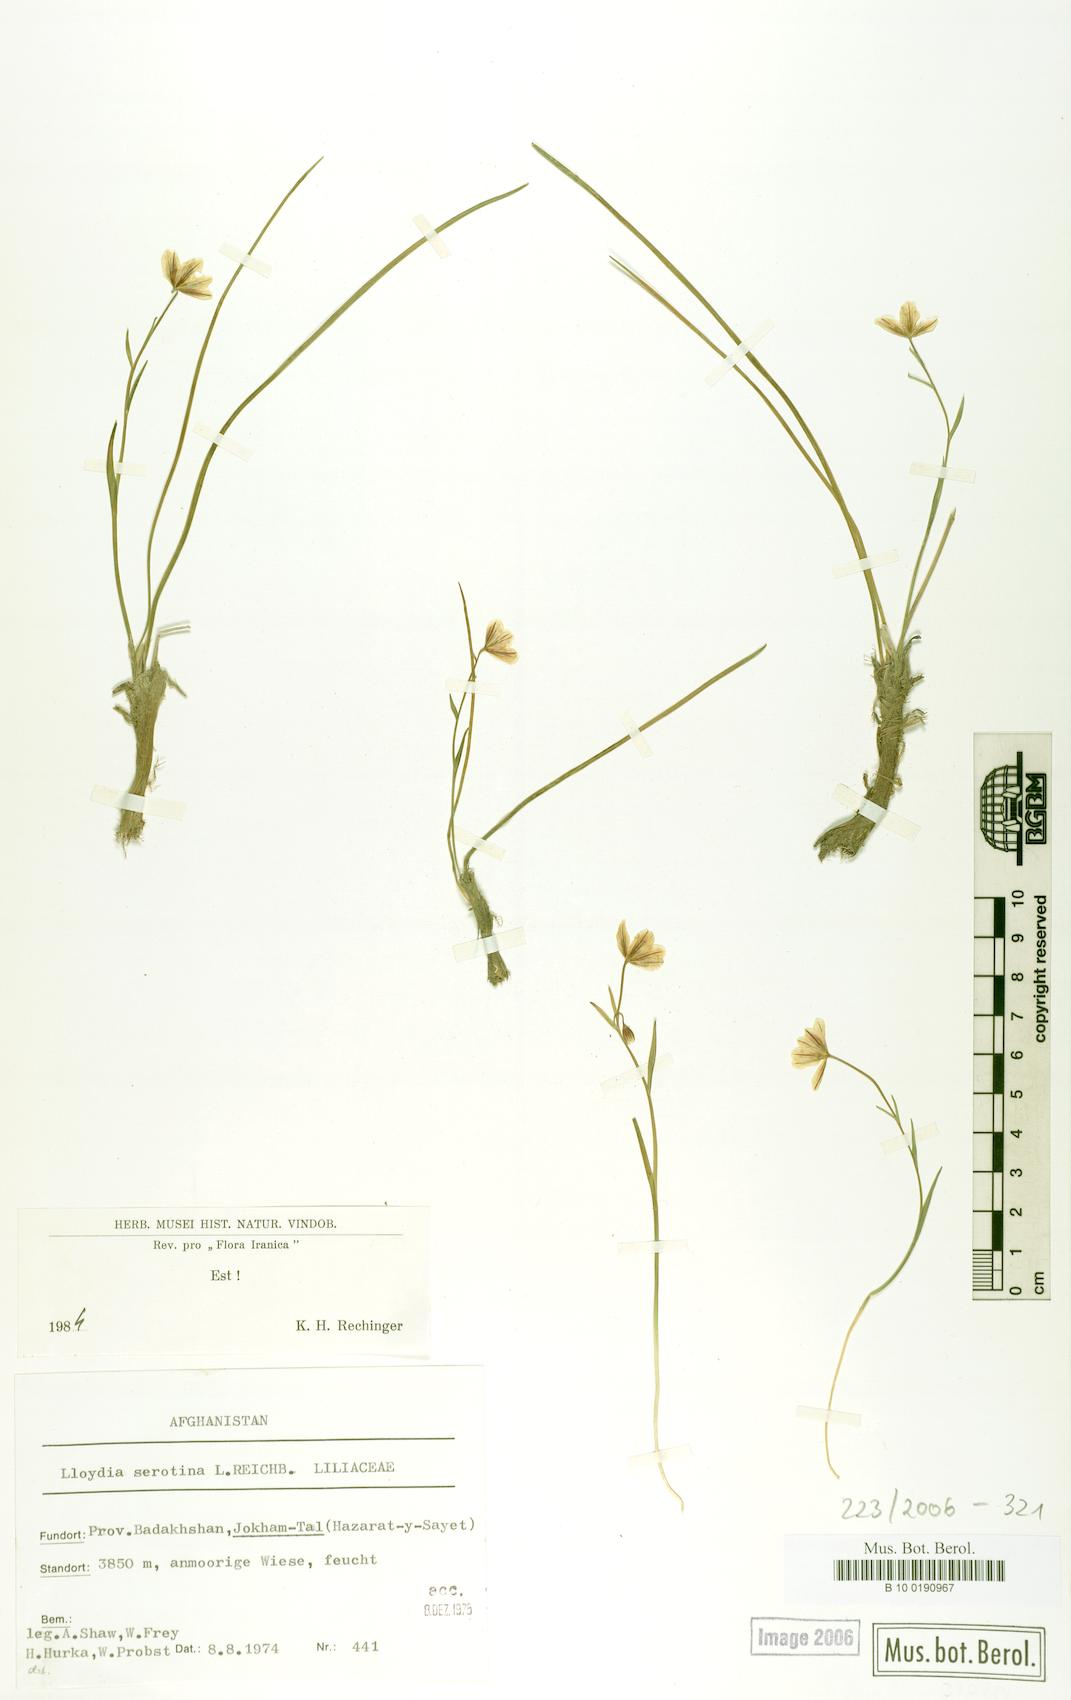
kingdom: Plantae
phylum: Tracheophyta
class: Liliopsida
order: Liliales
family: Liliaceae
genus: Gagea
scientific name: Gagea serotina
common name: Snowdon lily
